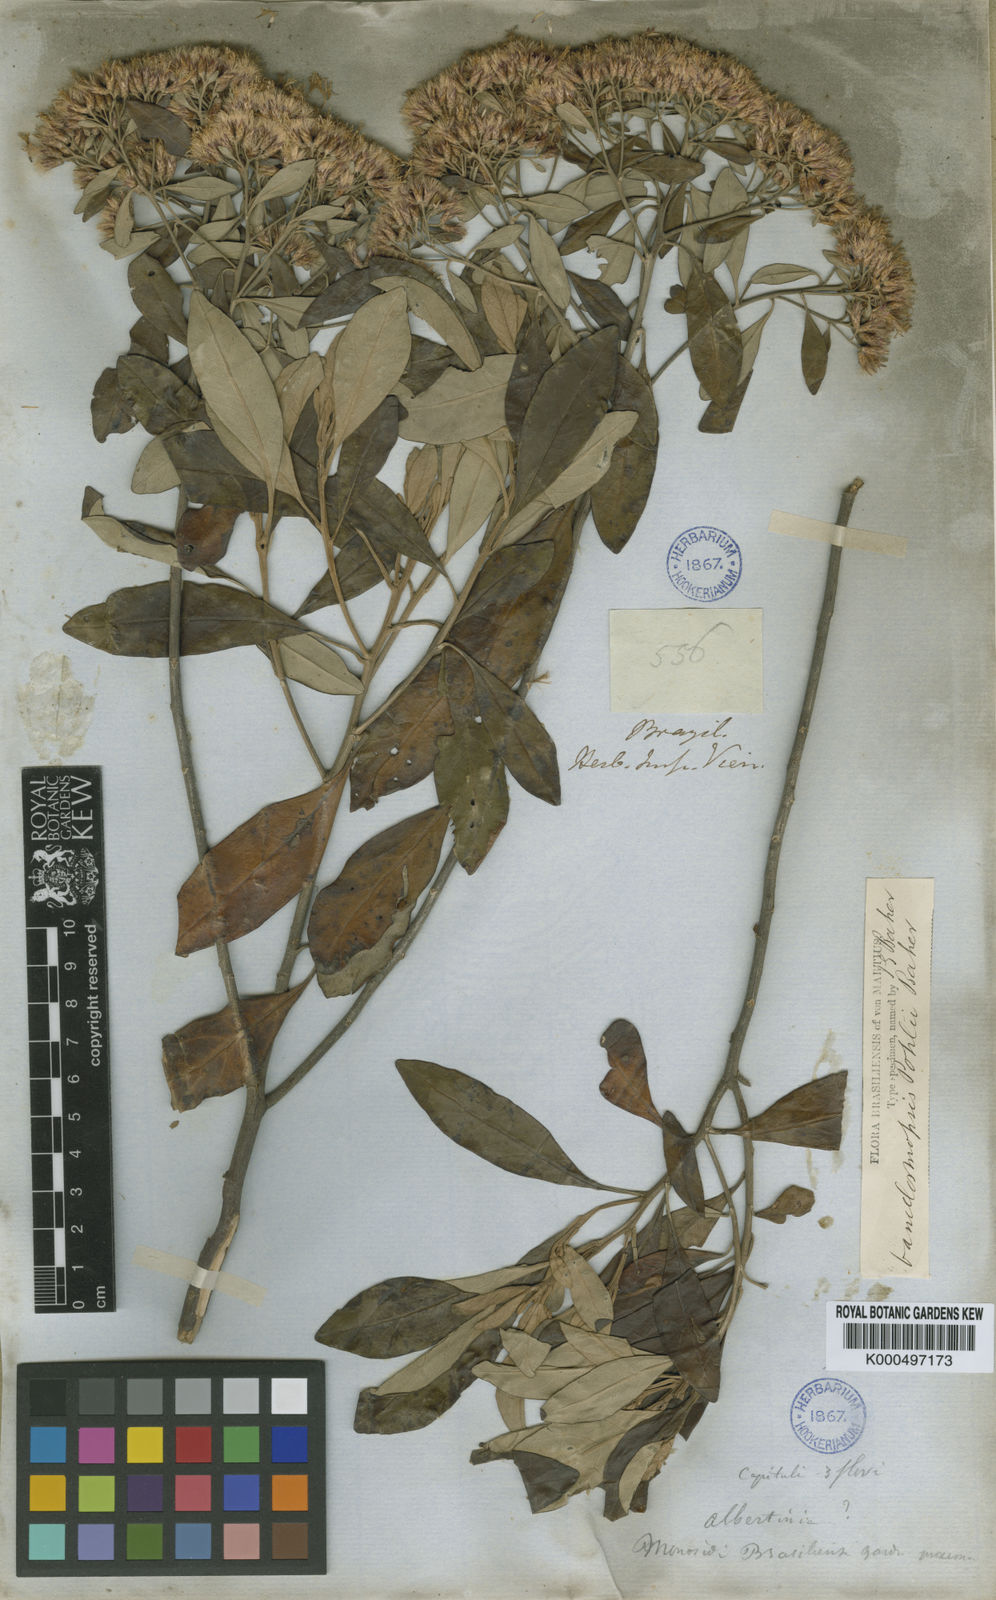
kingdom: Plantae
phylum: Tracheophyta
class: Magnoliopsida
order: Asterales
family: Asteraceae
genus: Eremanthus
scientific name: Eremanthus capitatus
